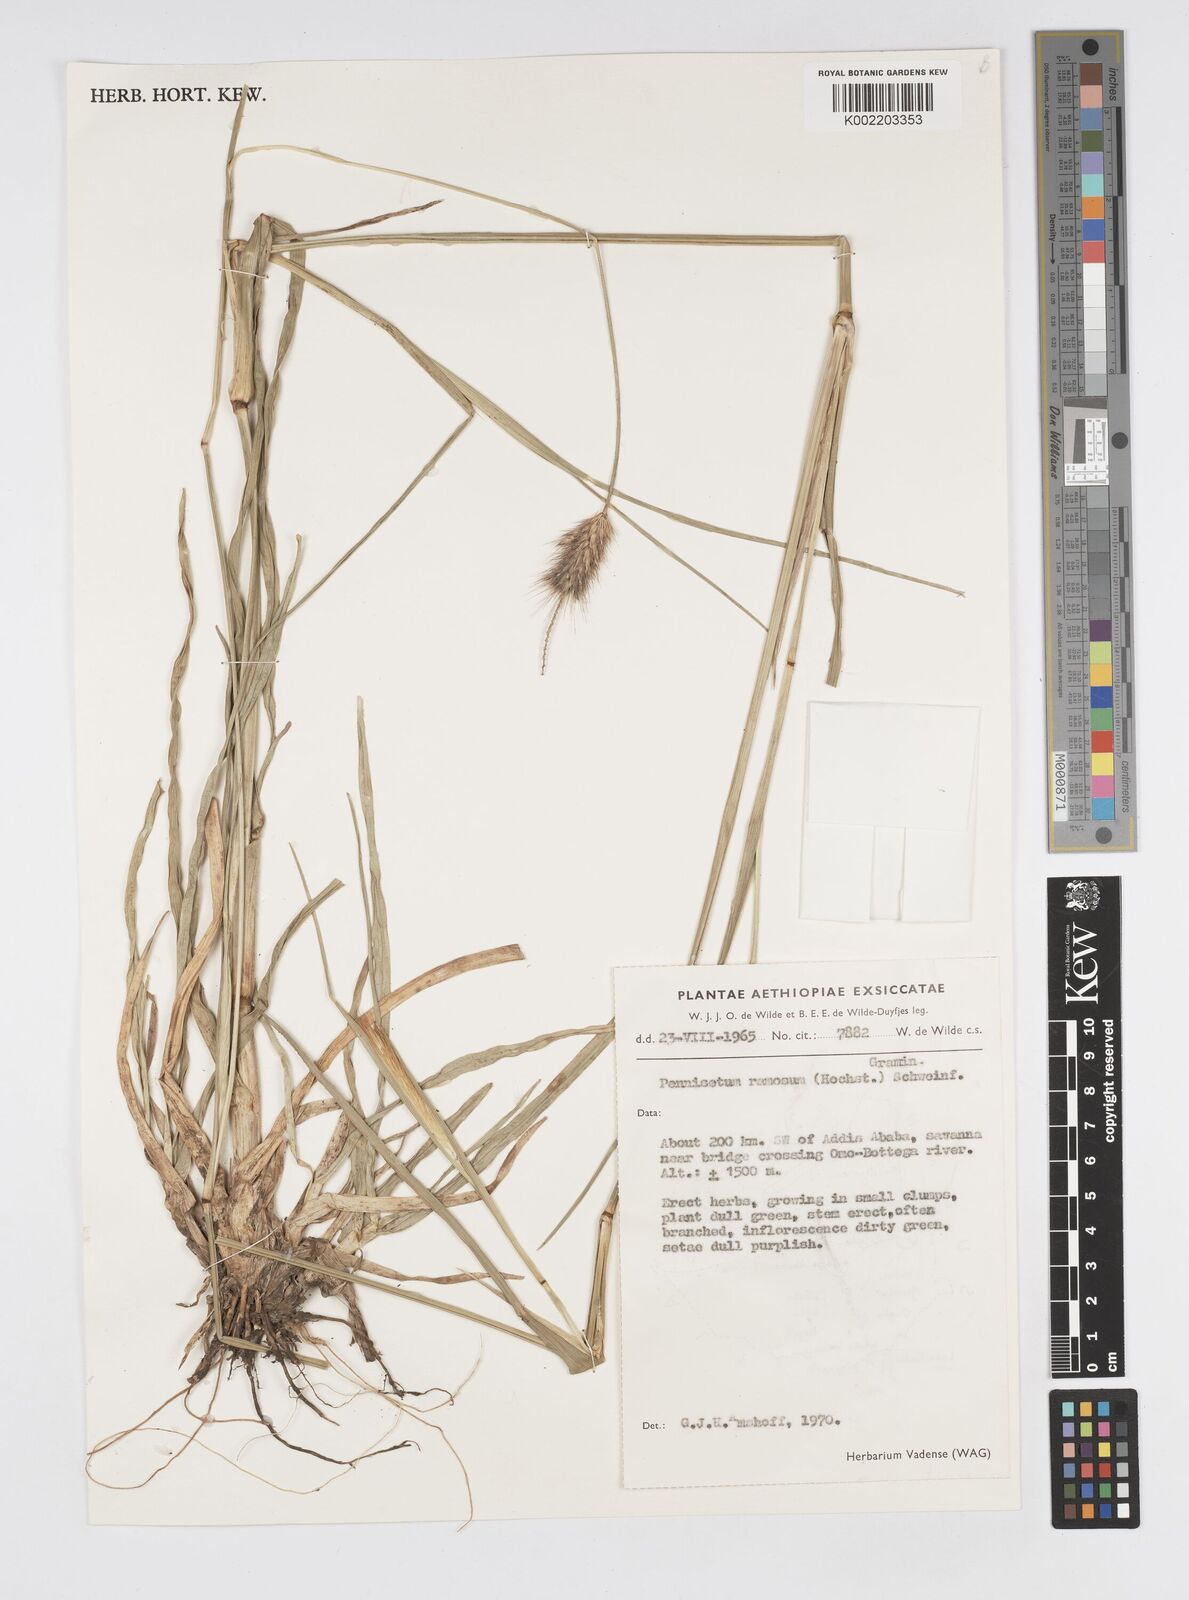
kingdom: Plantae
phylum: Tracheophyta
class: Liliopsida
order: Poales
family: Poaceae
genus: Cenchrus
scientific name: Cenchrus ramosus
